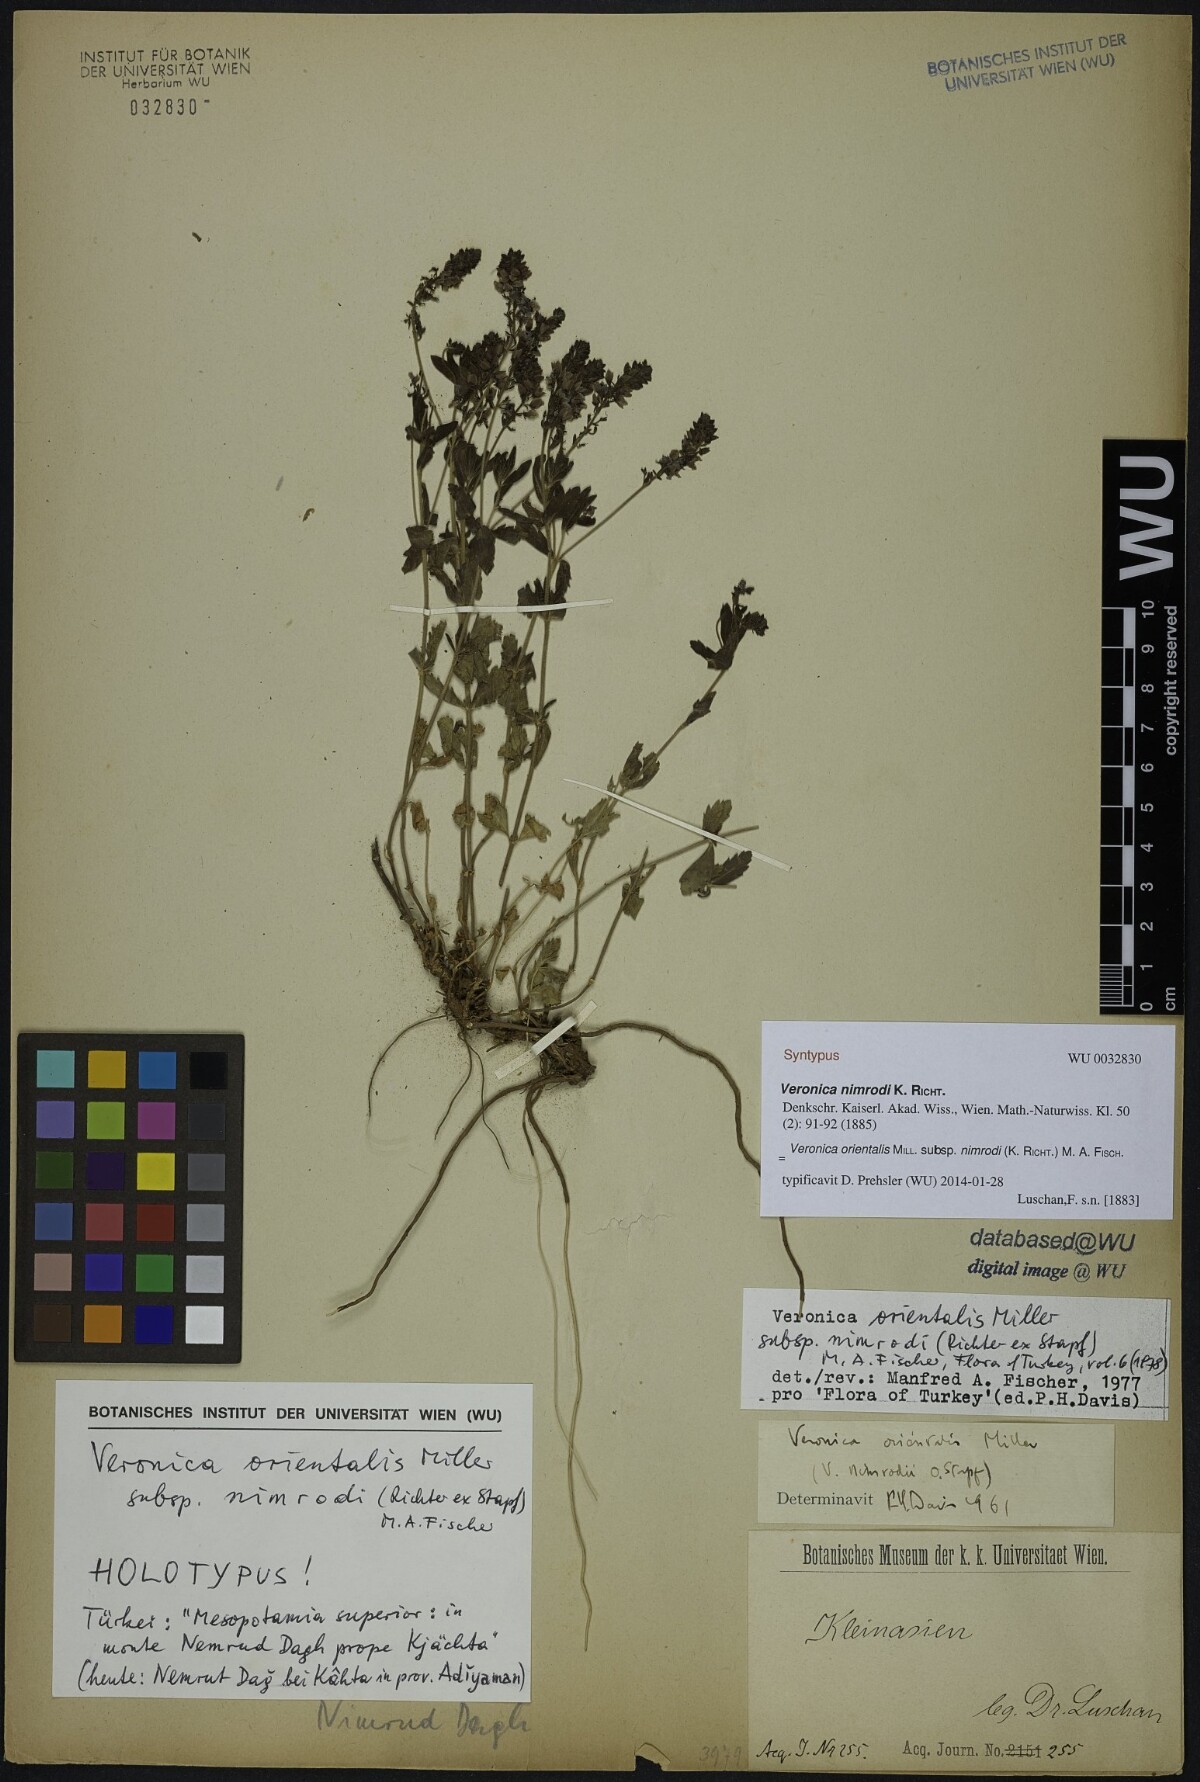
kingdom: Plantae
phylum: Tracheophyta
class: Magnoliopsida
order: Lamiales
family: Plantaginaceae
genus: Veronica
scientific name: Veronica orientalis
